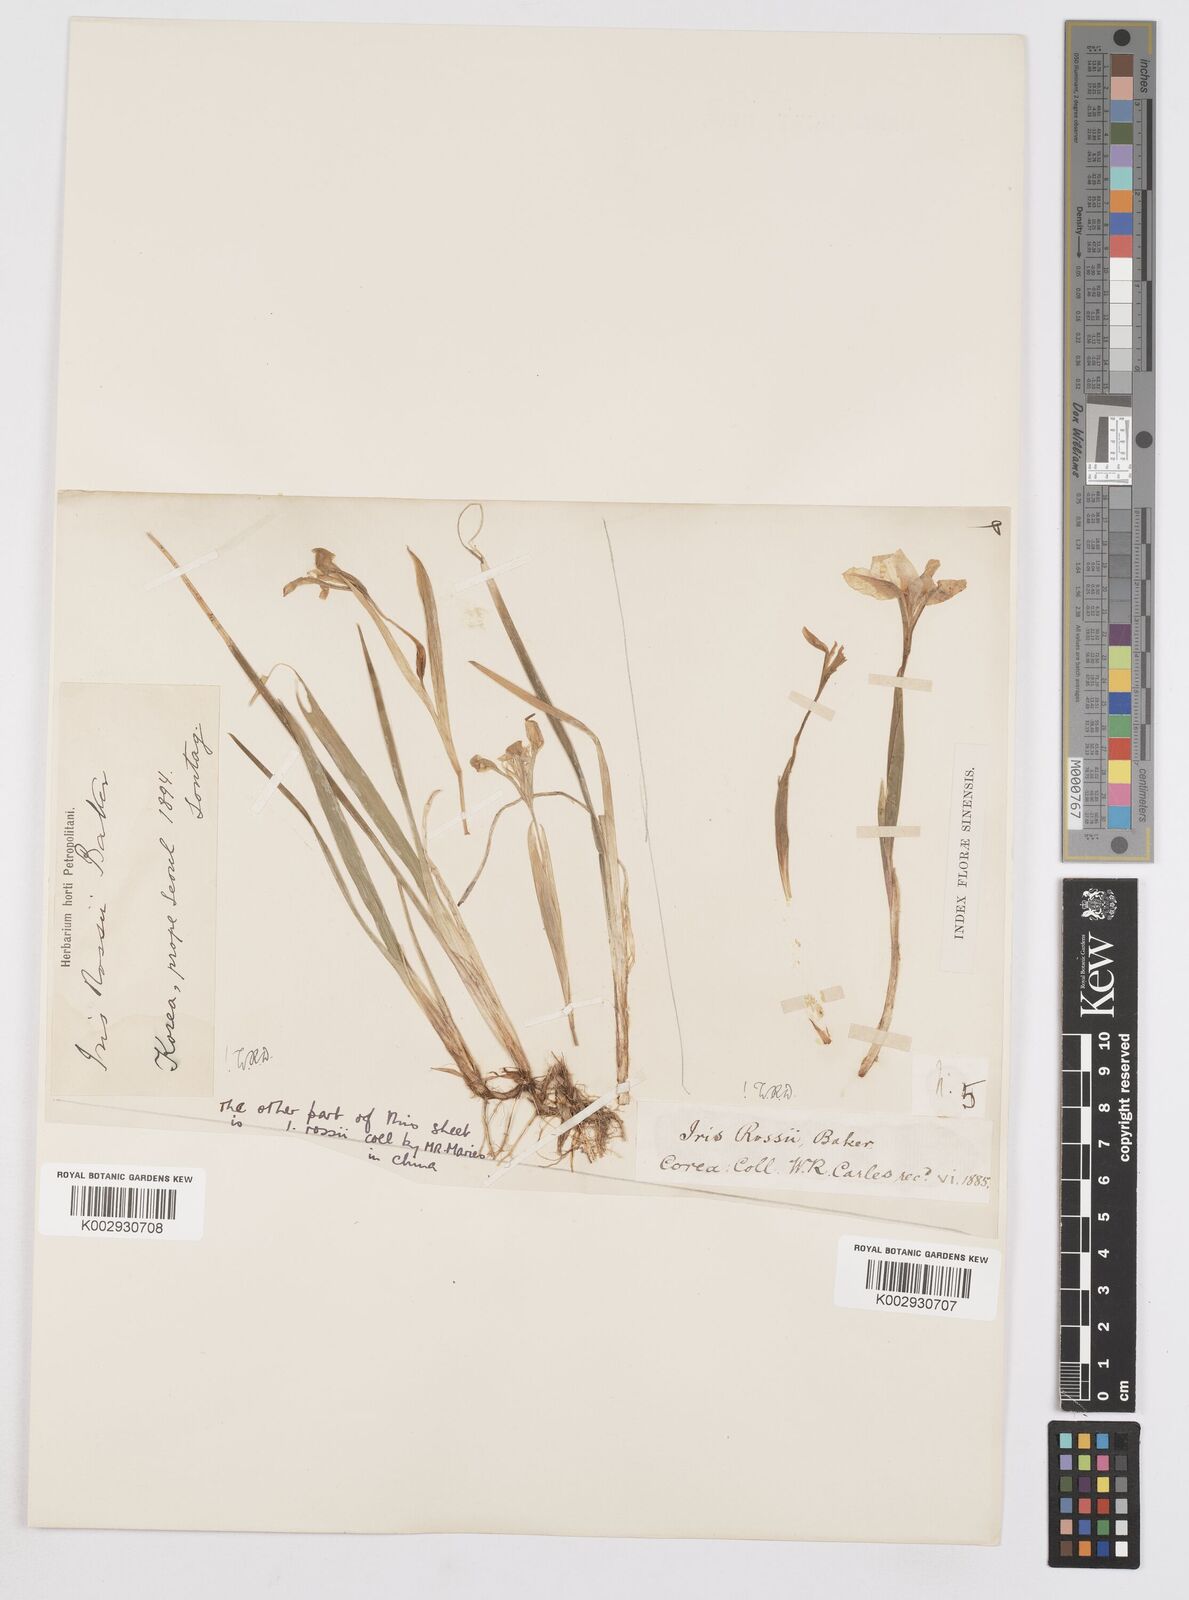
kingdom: Plantae
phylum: Tracheophyta
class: Liliopsida
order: Asparagales
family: Iridaceae
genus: Iris
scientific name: Iris rossii
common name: Long-tail iris
